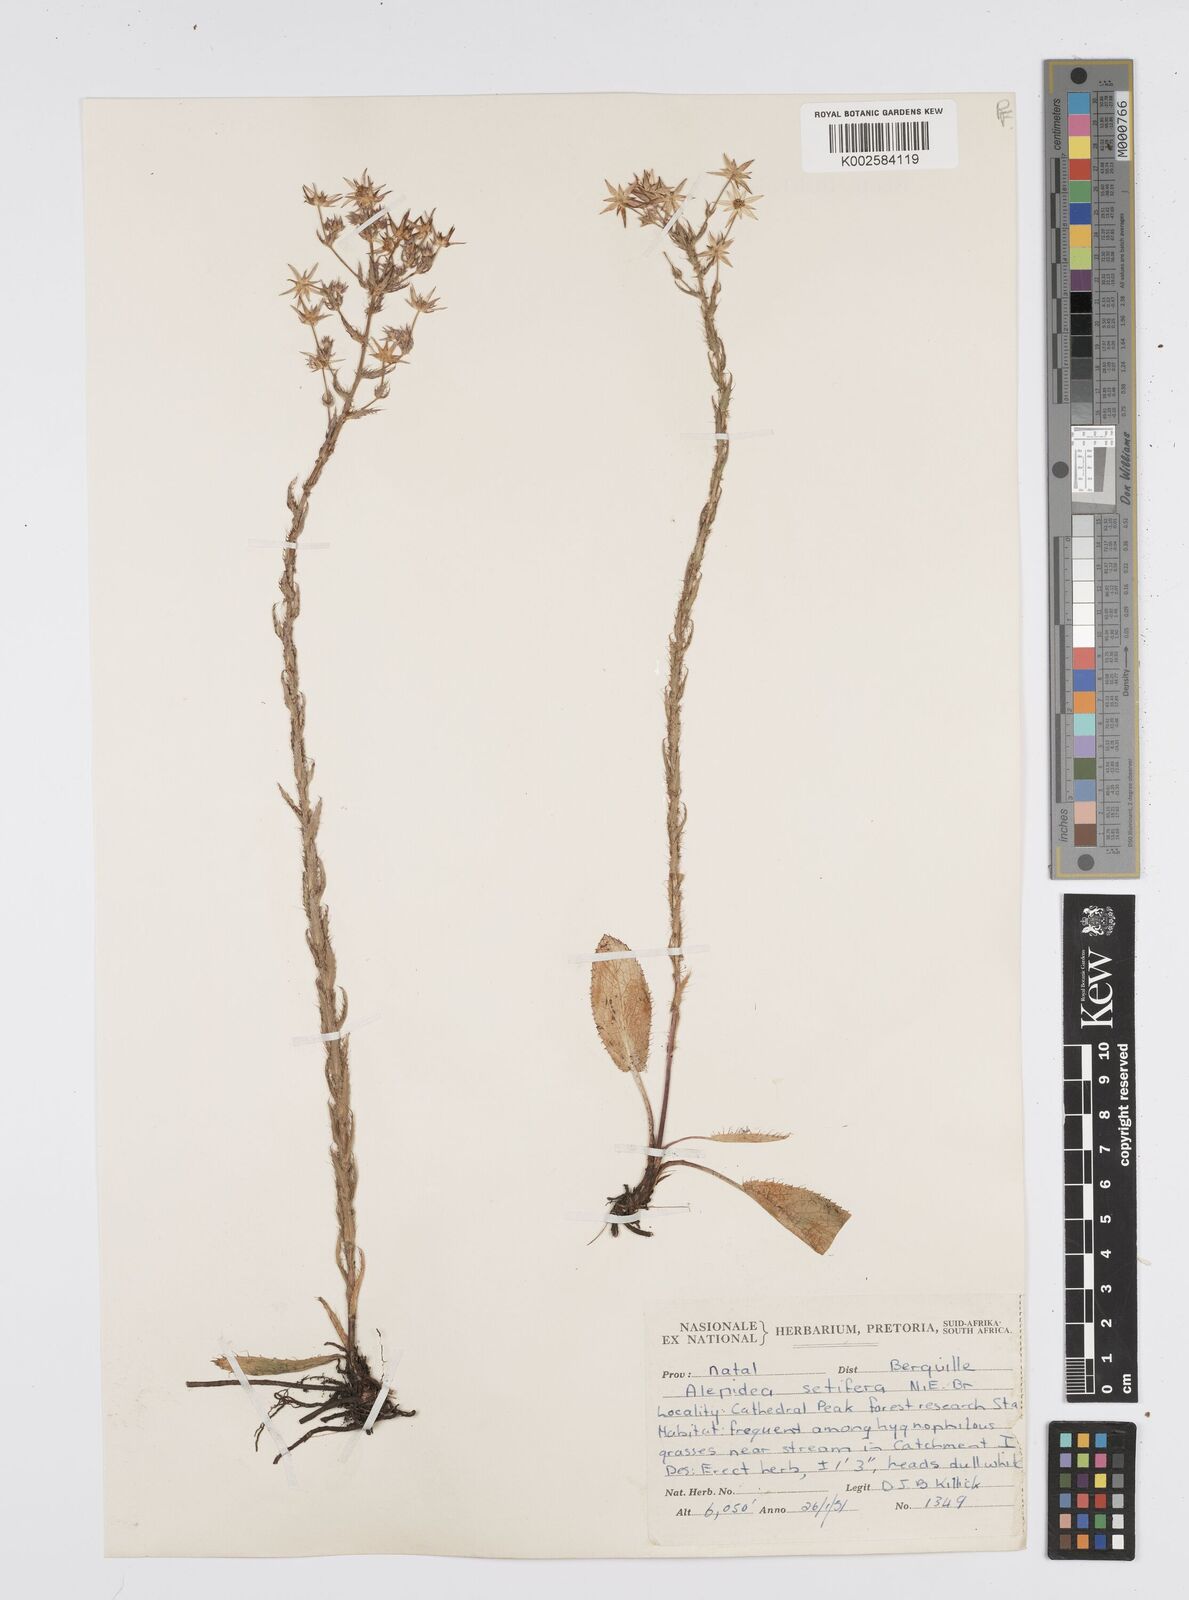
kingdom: Plantae
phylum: Tracheophyta
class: Magnoliopsida
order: Apiales
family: Apiaceae
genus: Alepidea
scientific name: Alepidea setifera
